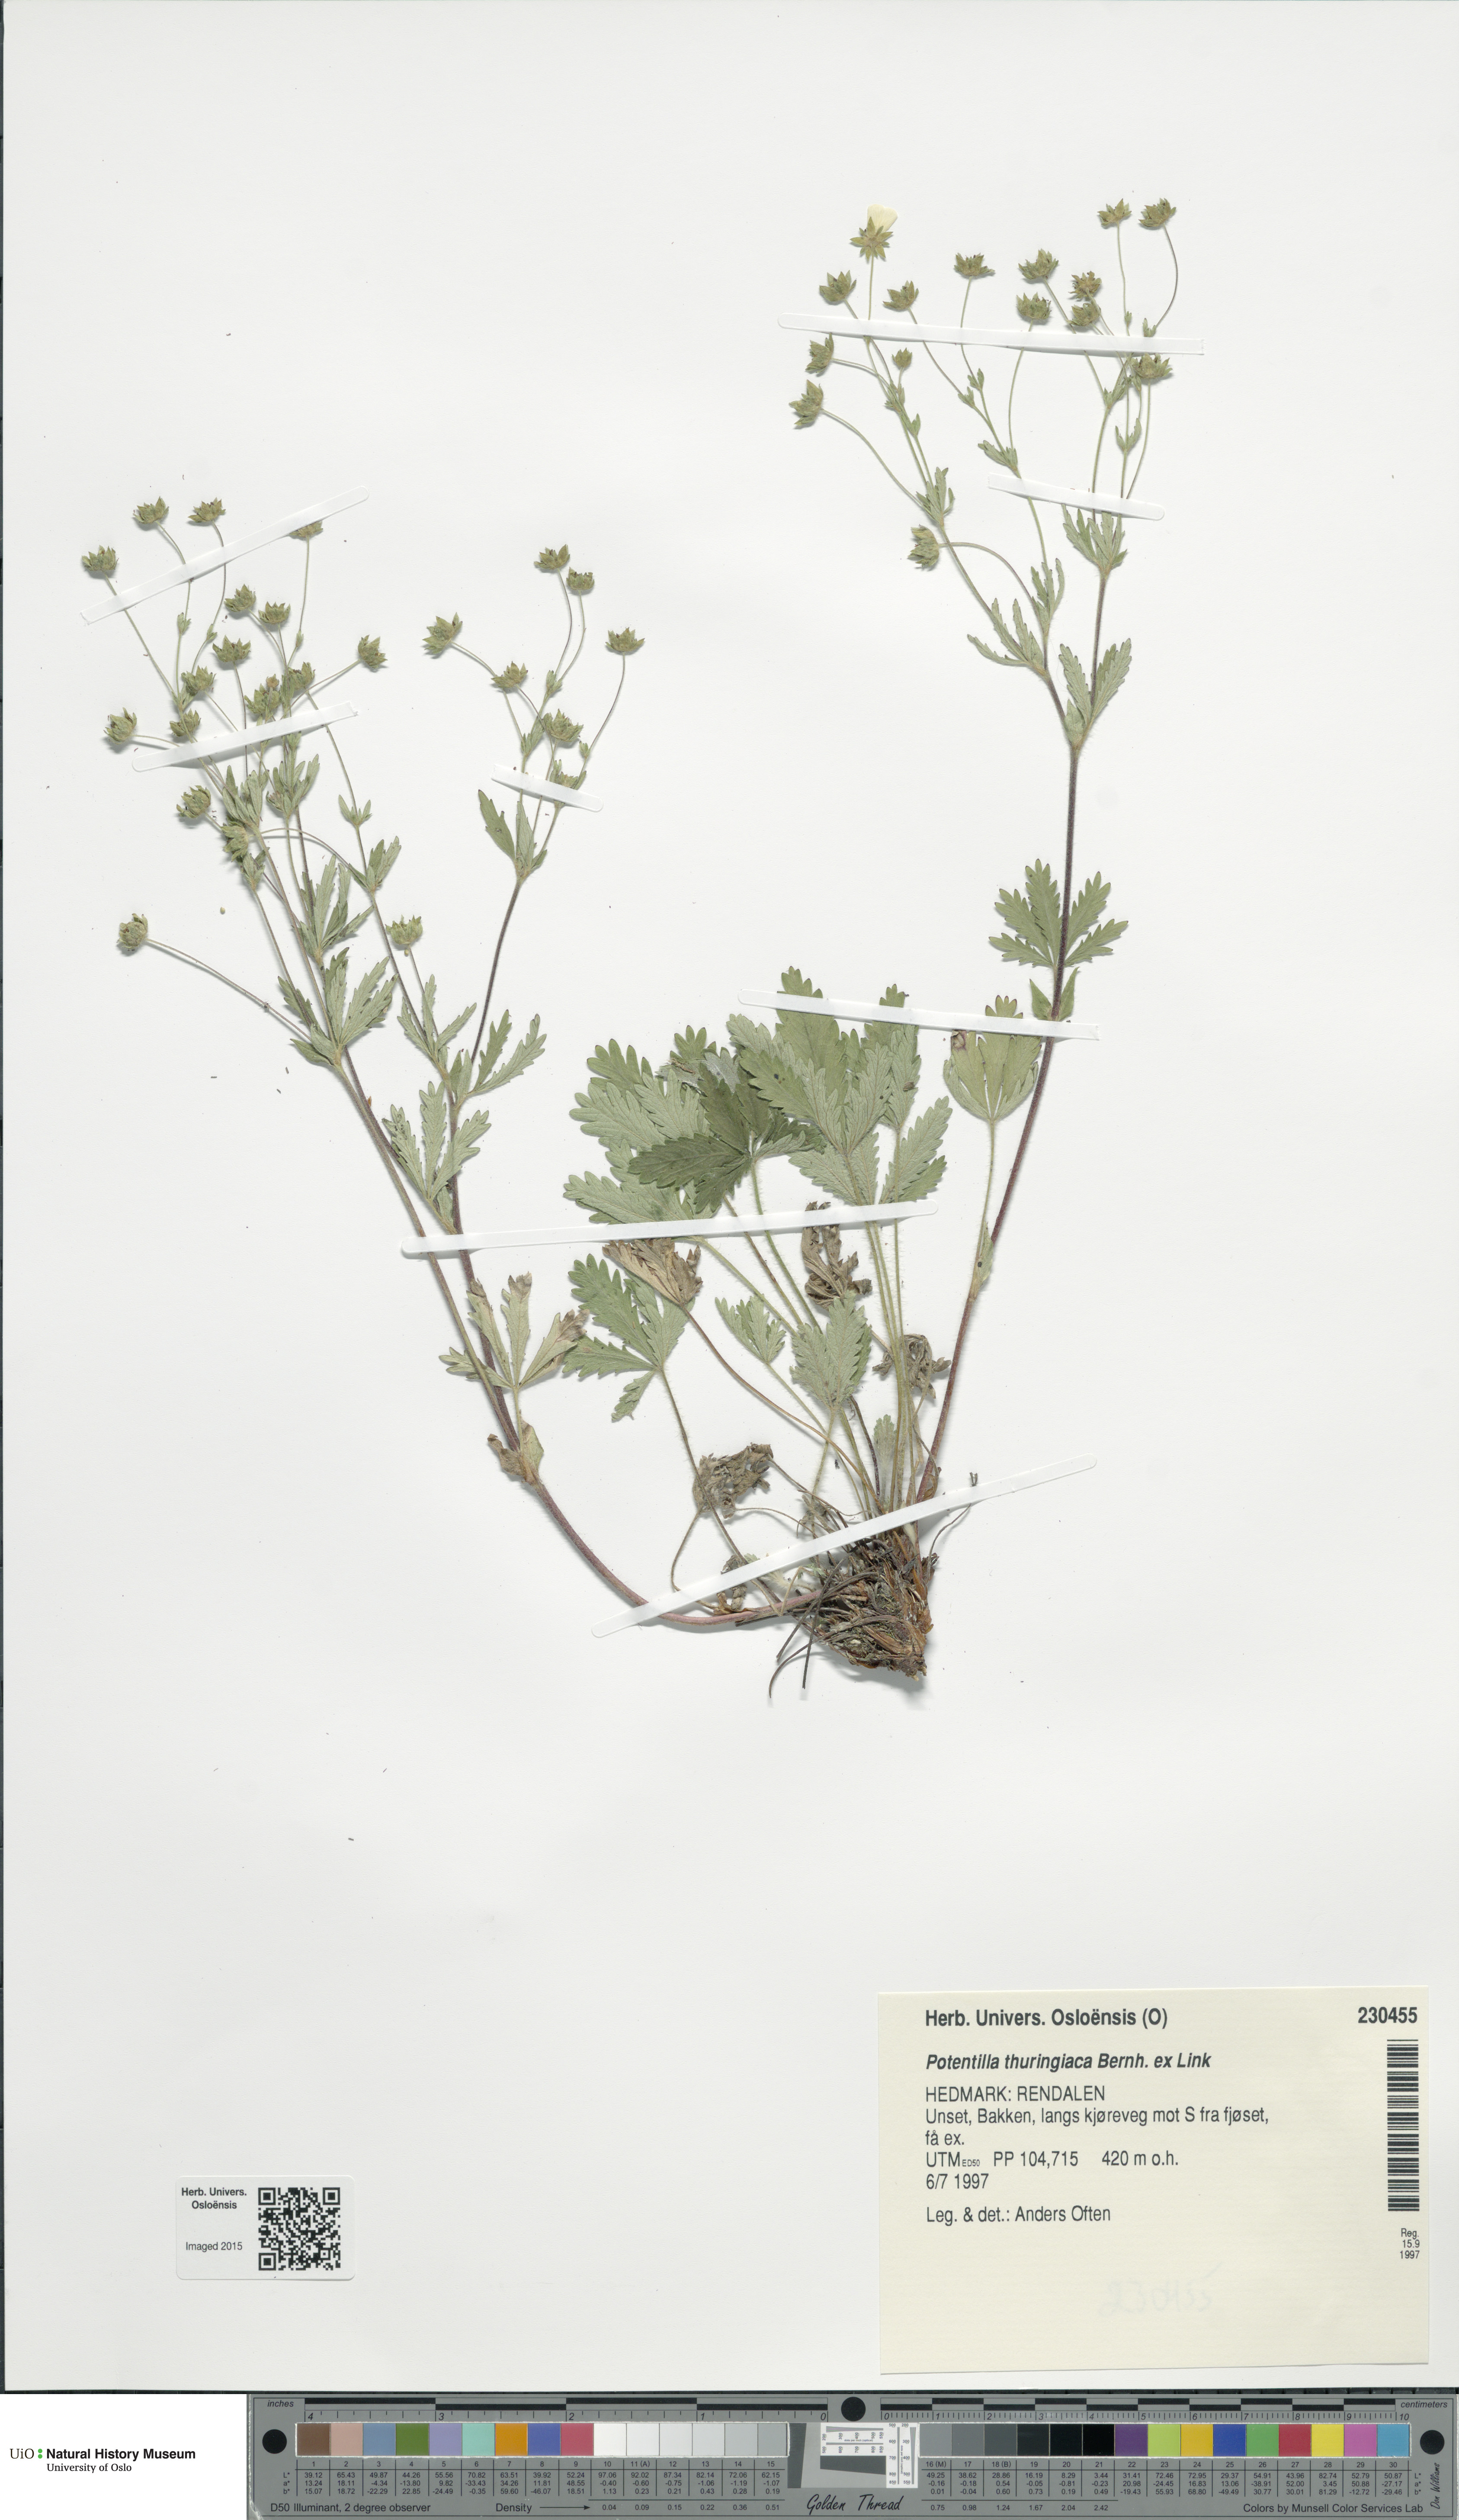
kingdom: Plantae
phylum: Tracheophyta
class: Magnoliopsida
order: Rosales
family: Rosaceae
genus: Potentilla
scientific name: Potentilla thuringiaca
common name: European cinquefoil
